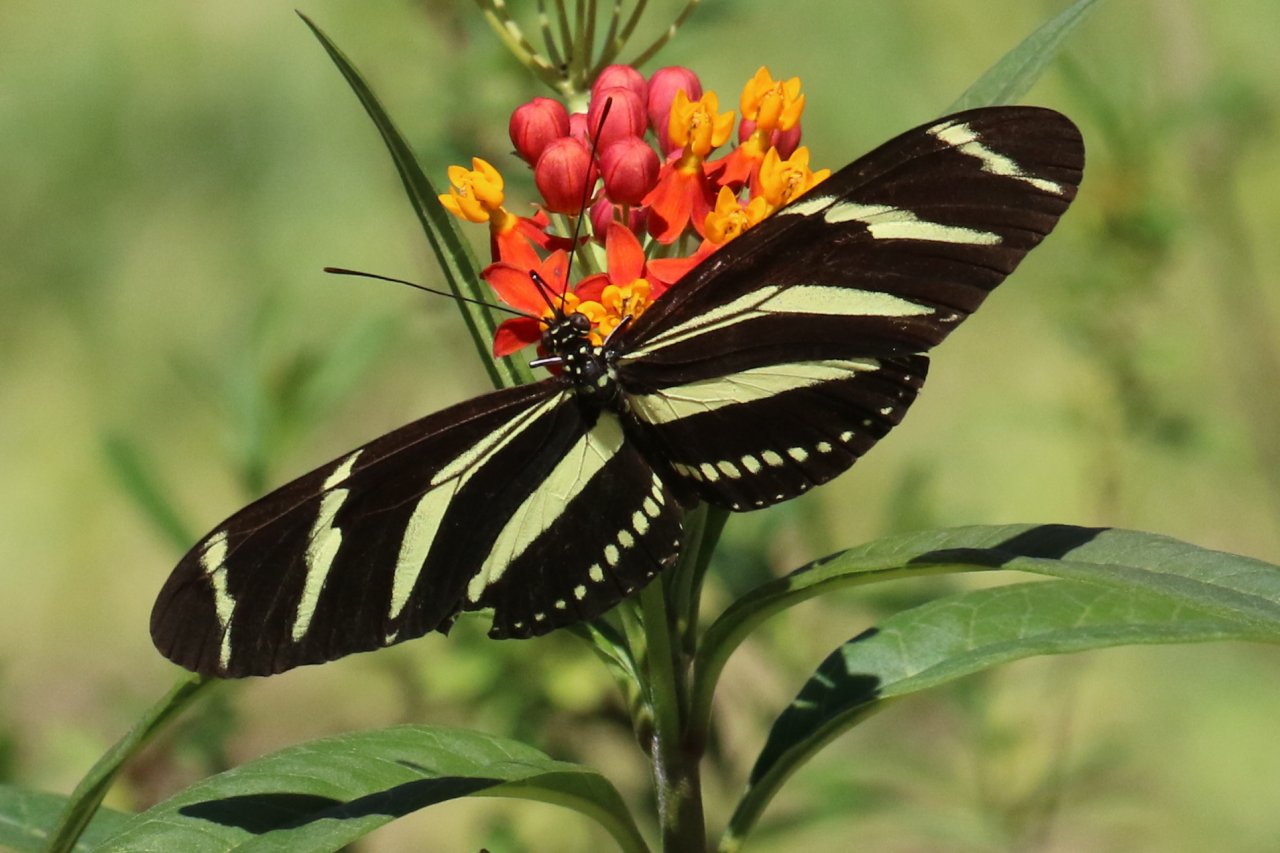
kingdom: Animalia
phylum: Arthropoda
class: Insecta
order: Lepidoptera
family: Nymphalidae
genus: Heliconius
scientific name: Heliconius charithonia
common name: Zebra Longwing
